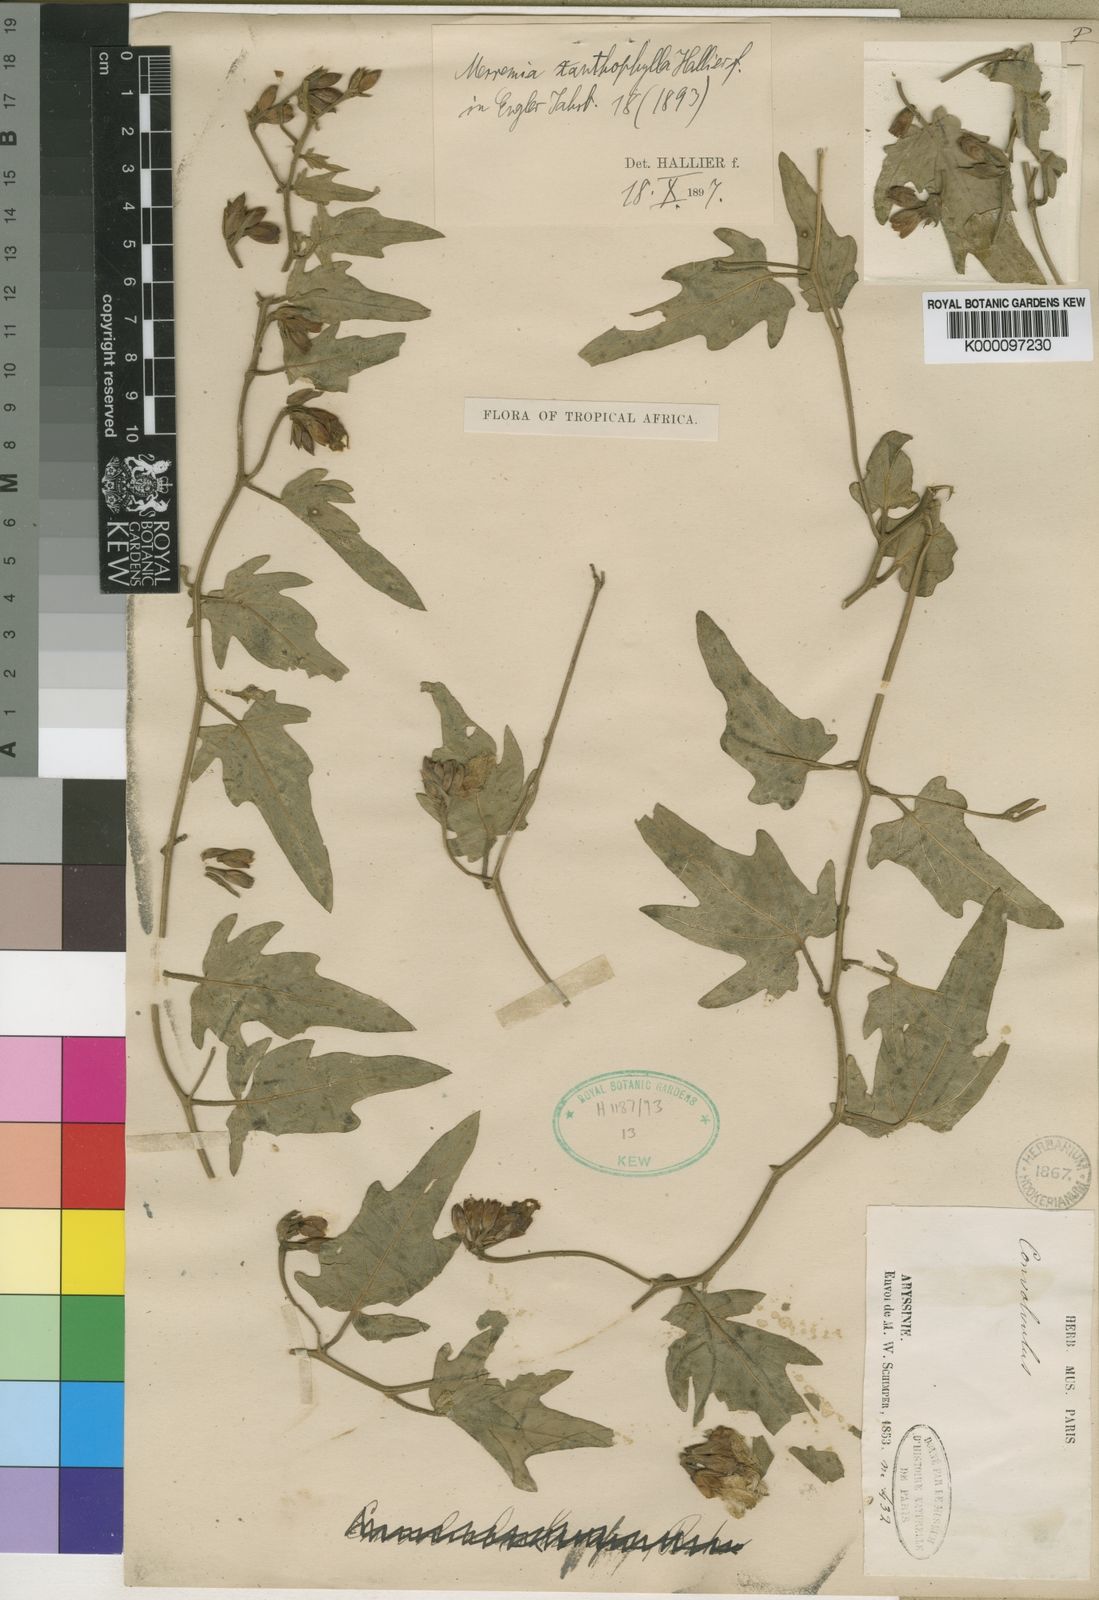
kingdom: Plantae
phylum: Tracheophyta
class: Magnoliopsida
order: Solanales
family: Convolvulaceae
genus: Merremia
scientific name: Merremia xanthophylla
